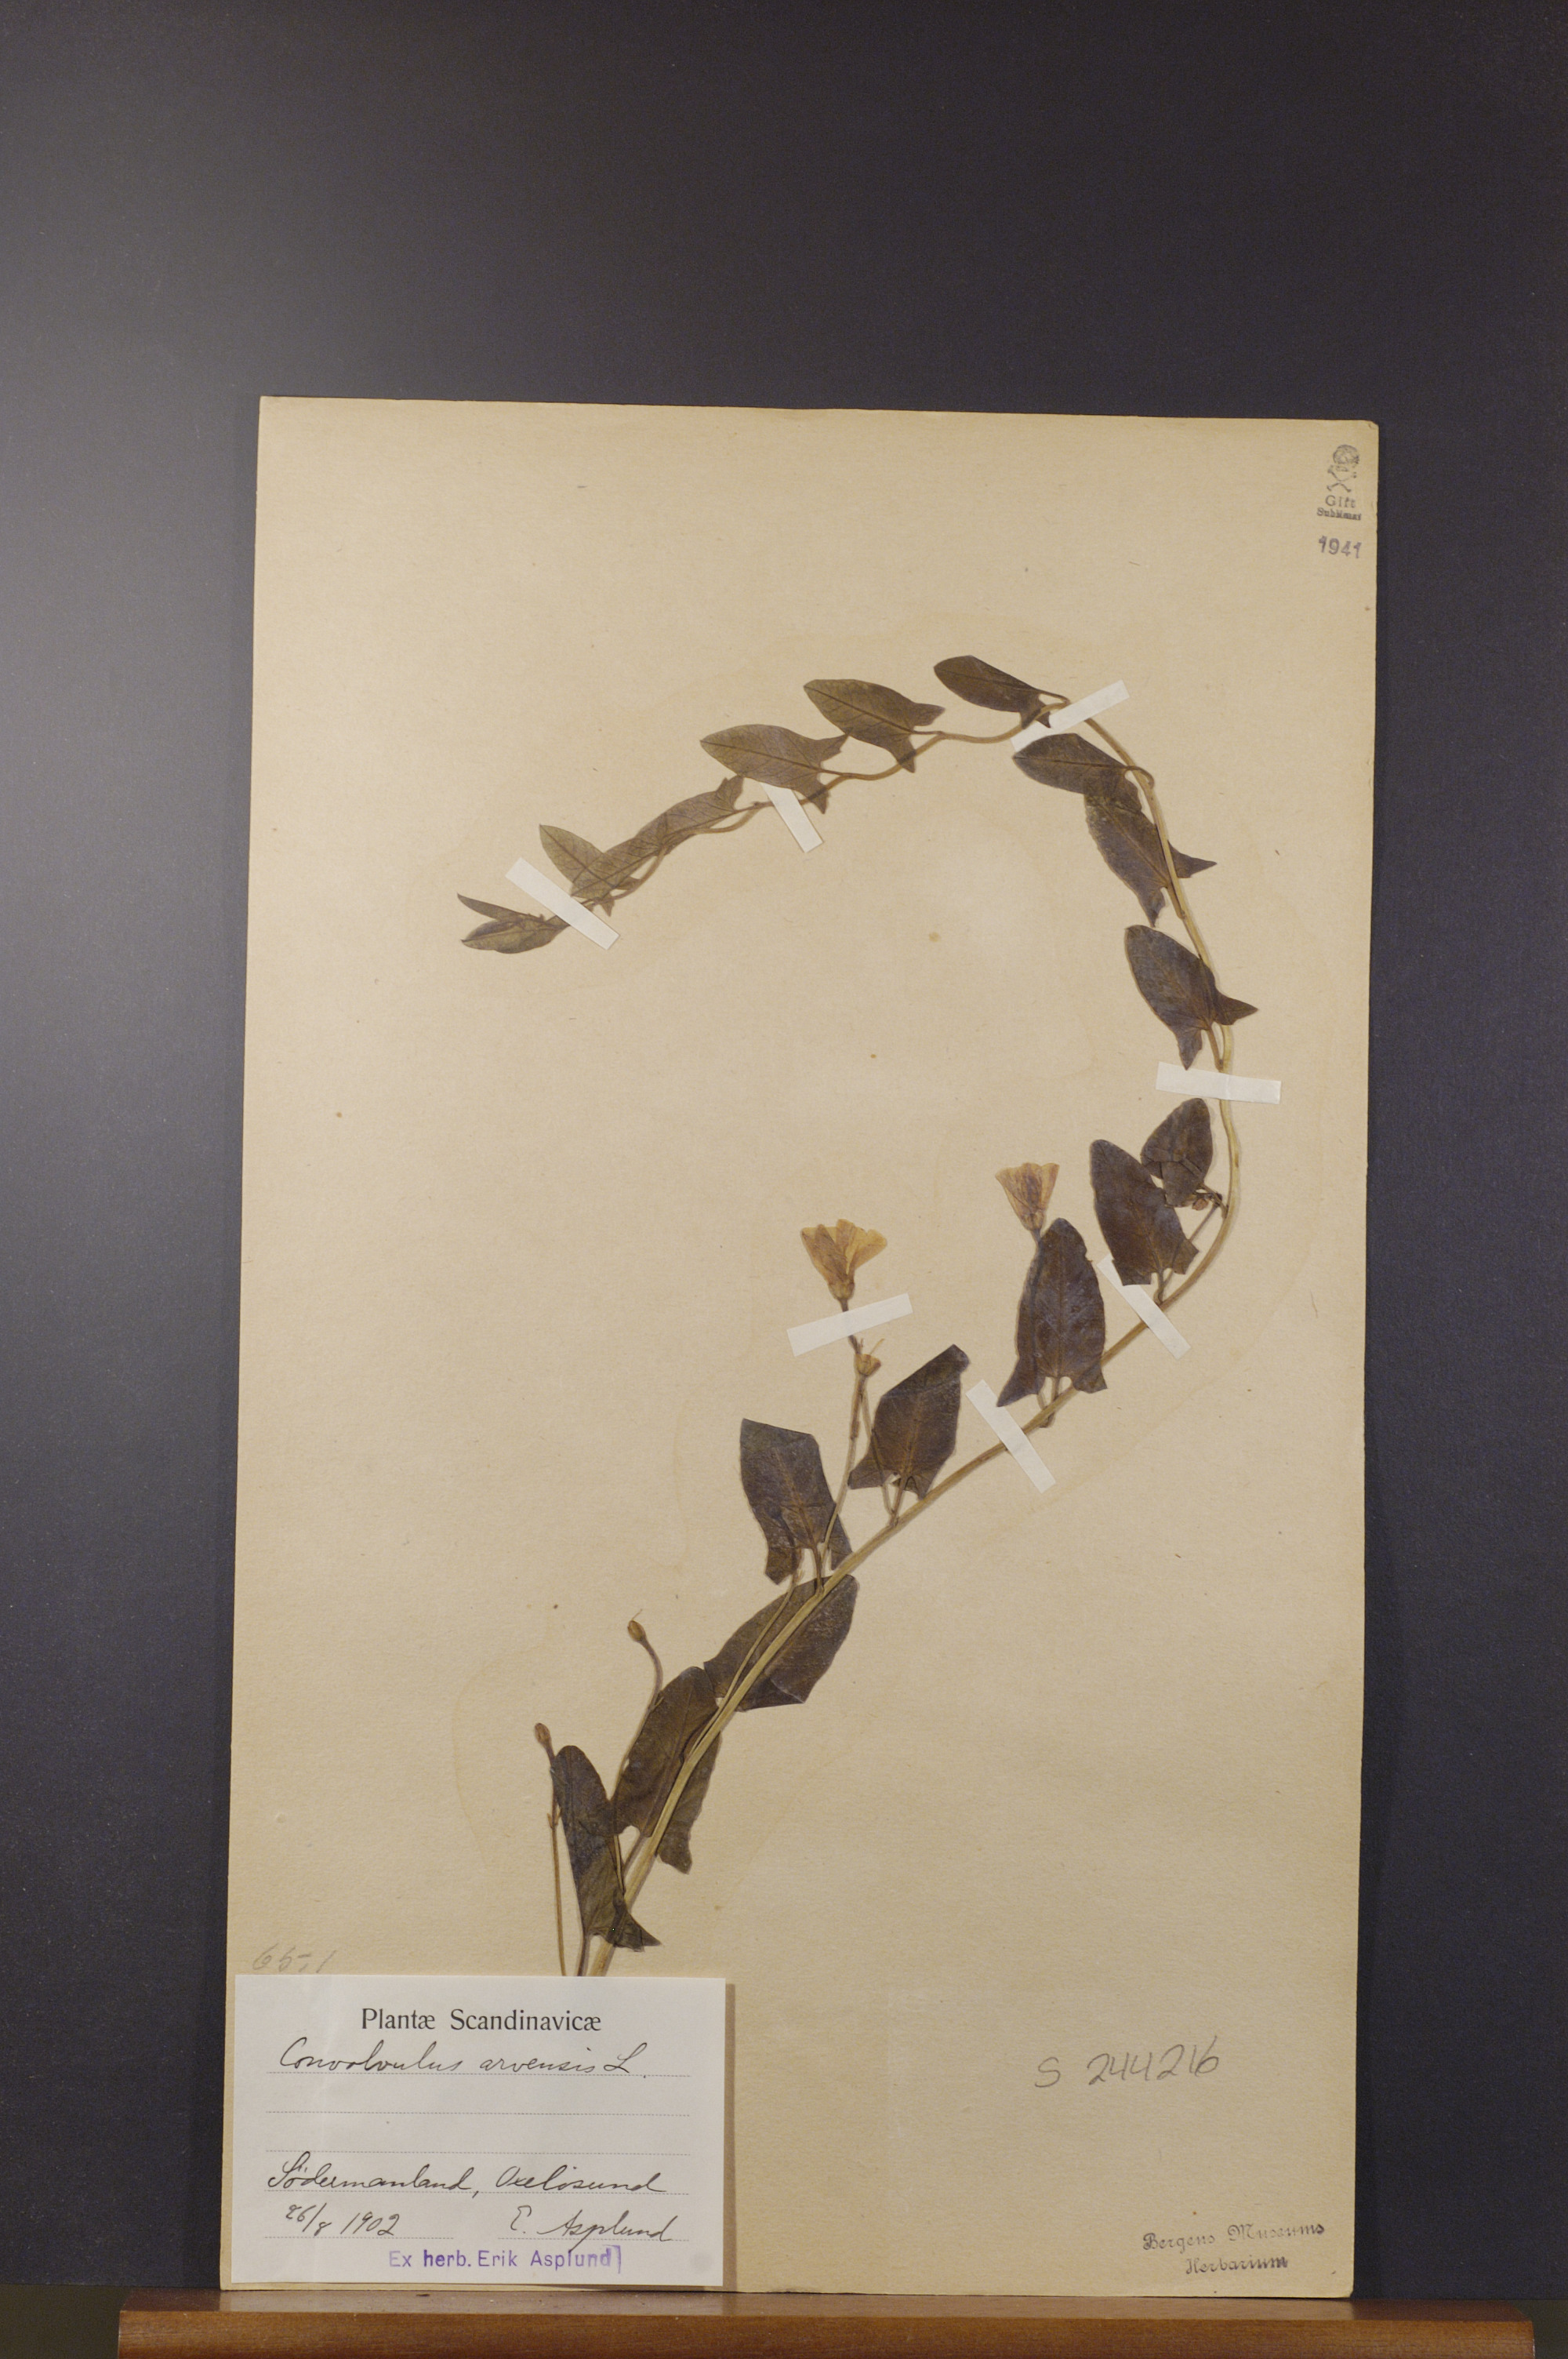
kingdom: Plantae
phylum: Tracheophyta
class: Magnoliopsida
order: Solanales
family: Convolvulaceae
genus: Convolvulus
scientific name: Convolvulus arvensis
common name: Field bindweed
